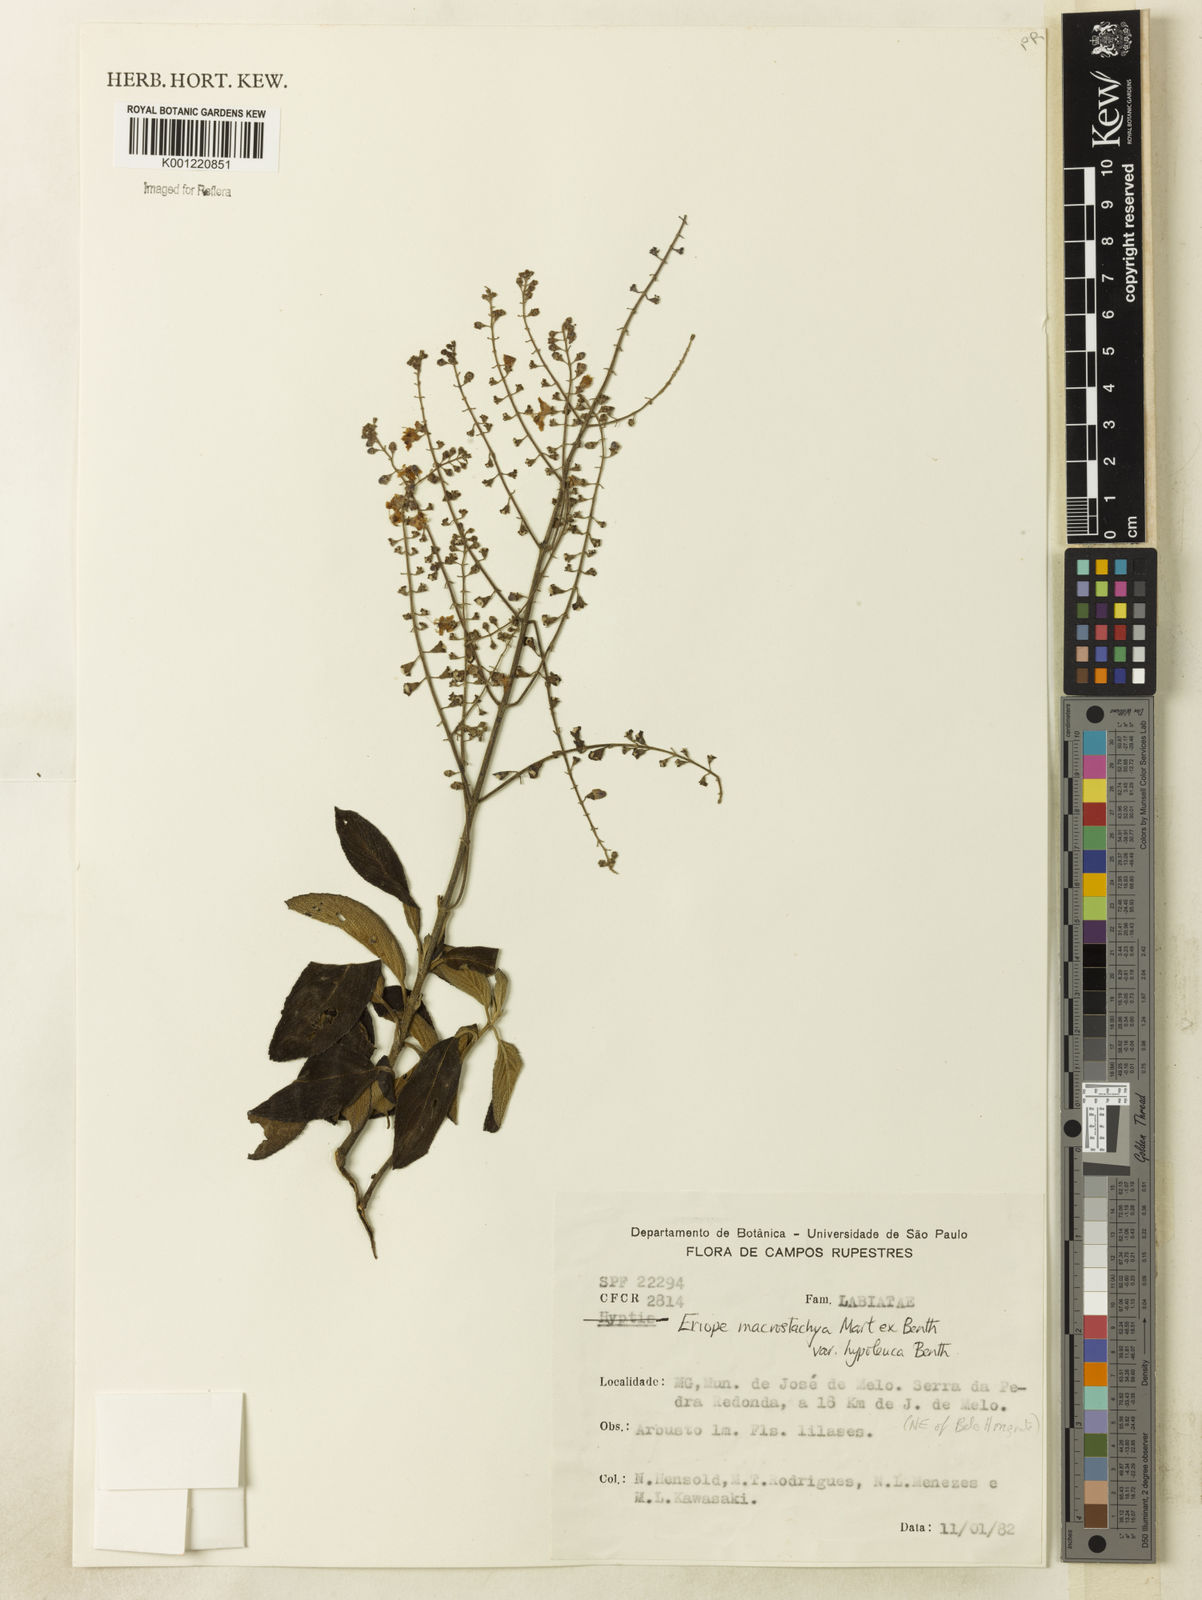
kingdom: Plantae
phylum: Tracheophyta
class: Magnoliopsida
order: Lamiales
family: Lamiaceae
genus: Eriope
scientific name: Eriope macrostachya
